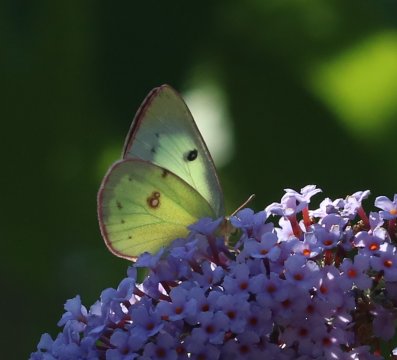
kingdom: Animalia
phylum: Arthropoda
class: Insecta
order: Lepidoptera
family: Pieridae
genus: Colias
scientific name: Colias philodice
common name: Clouded Sulphur
